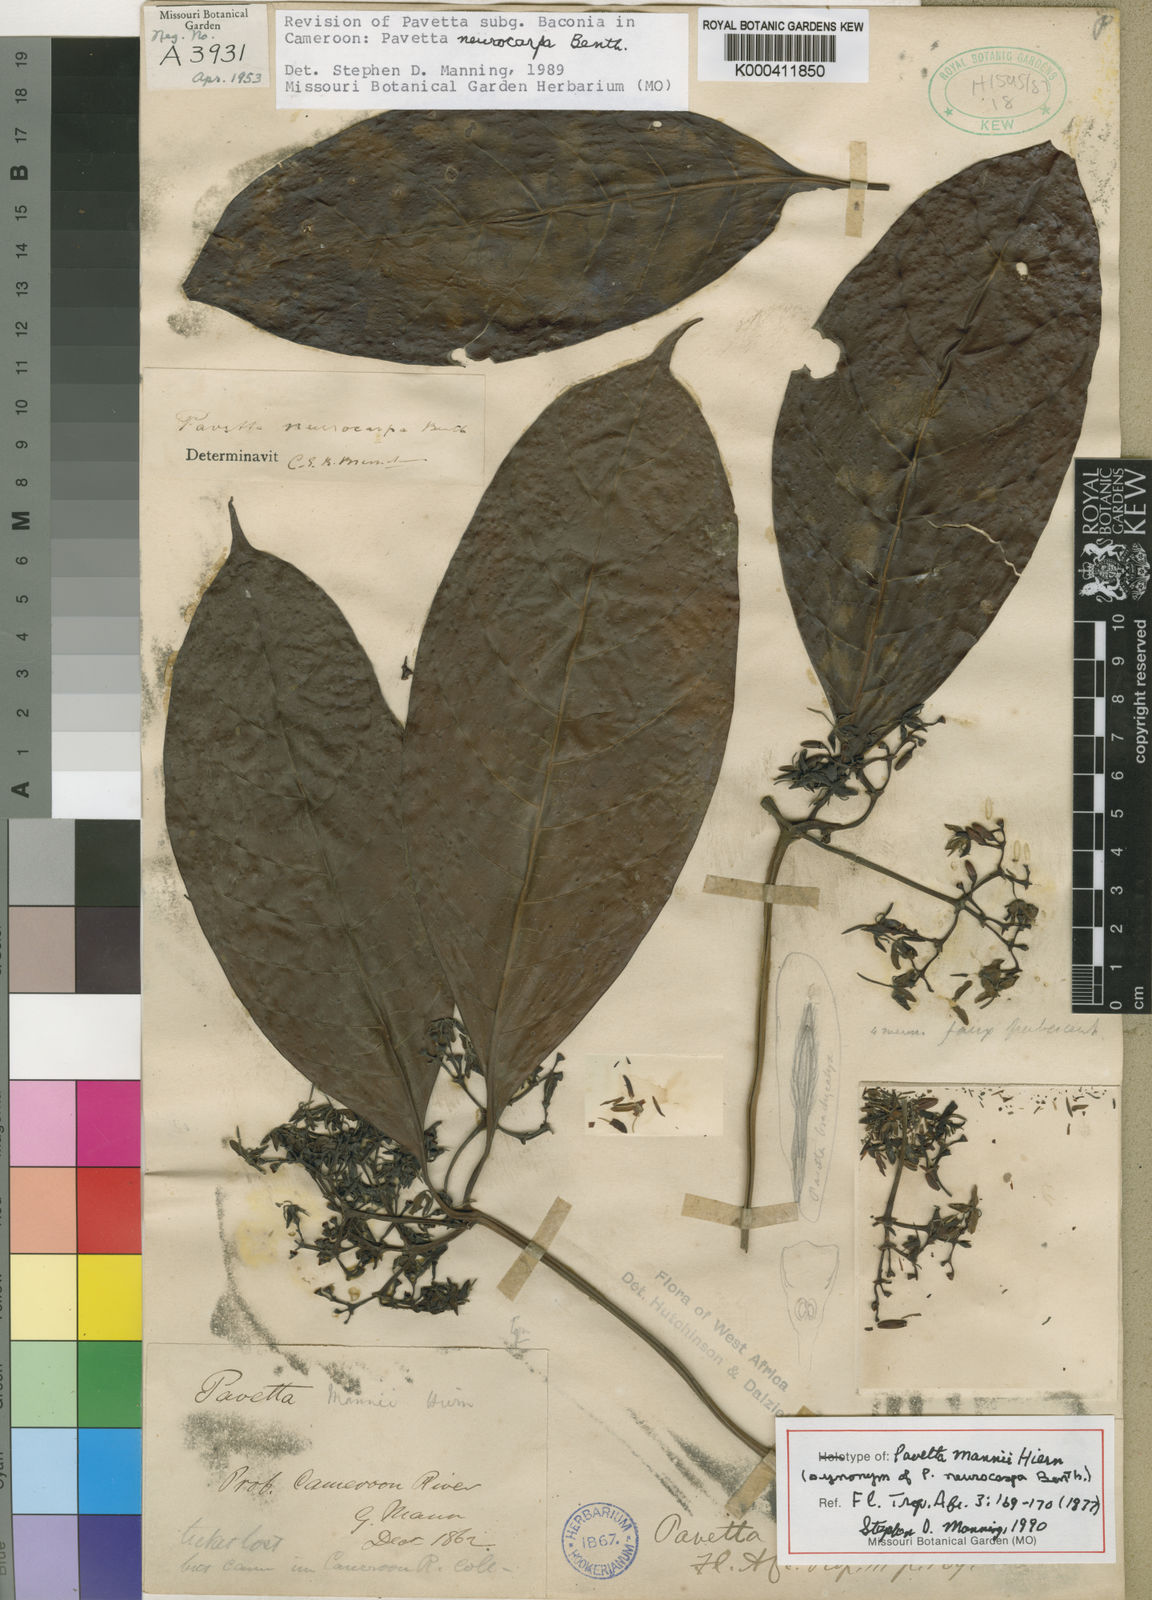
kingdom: Plantae
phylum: Tracheophyta
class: Magnoliopsida
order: Gentianales
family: Rubiaceae
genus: Pavetta
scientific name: Pavetta neurocarpa
